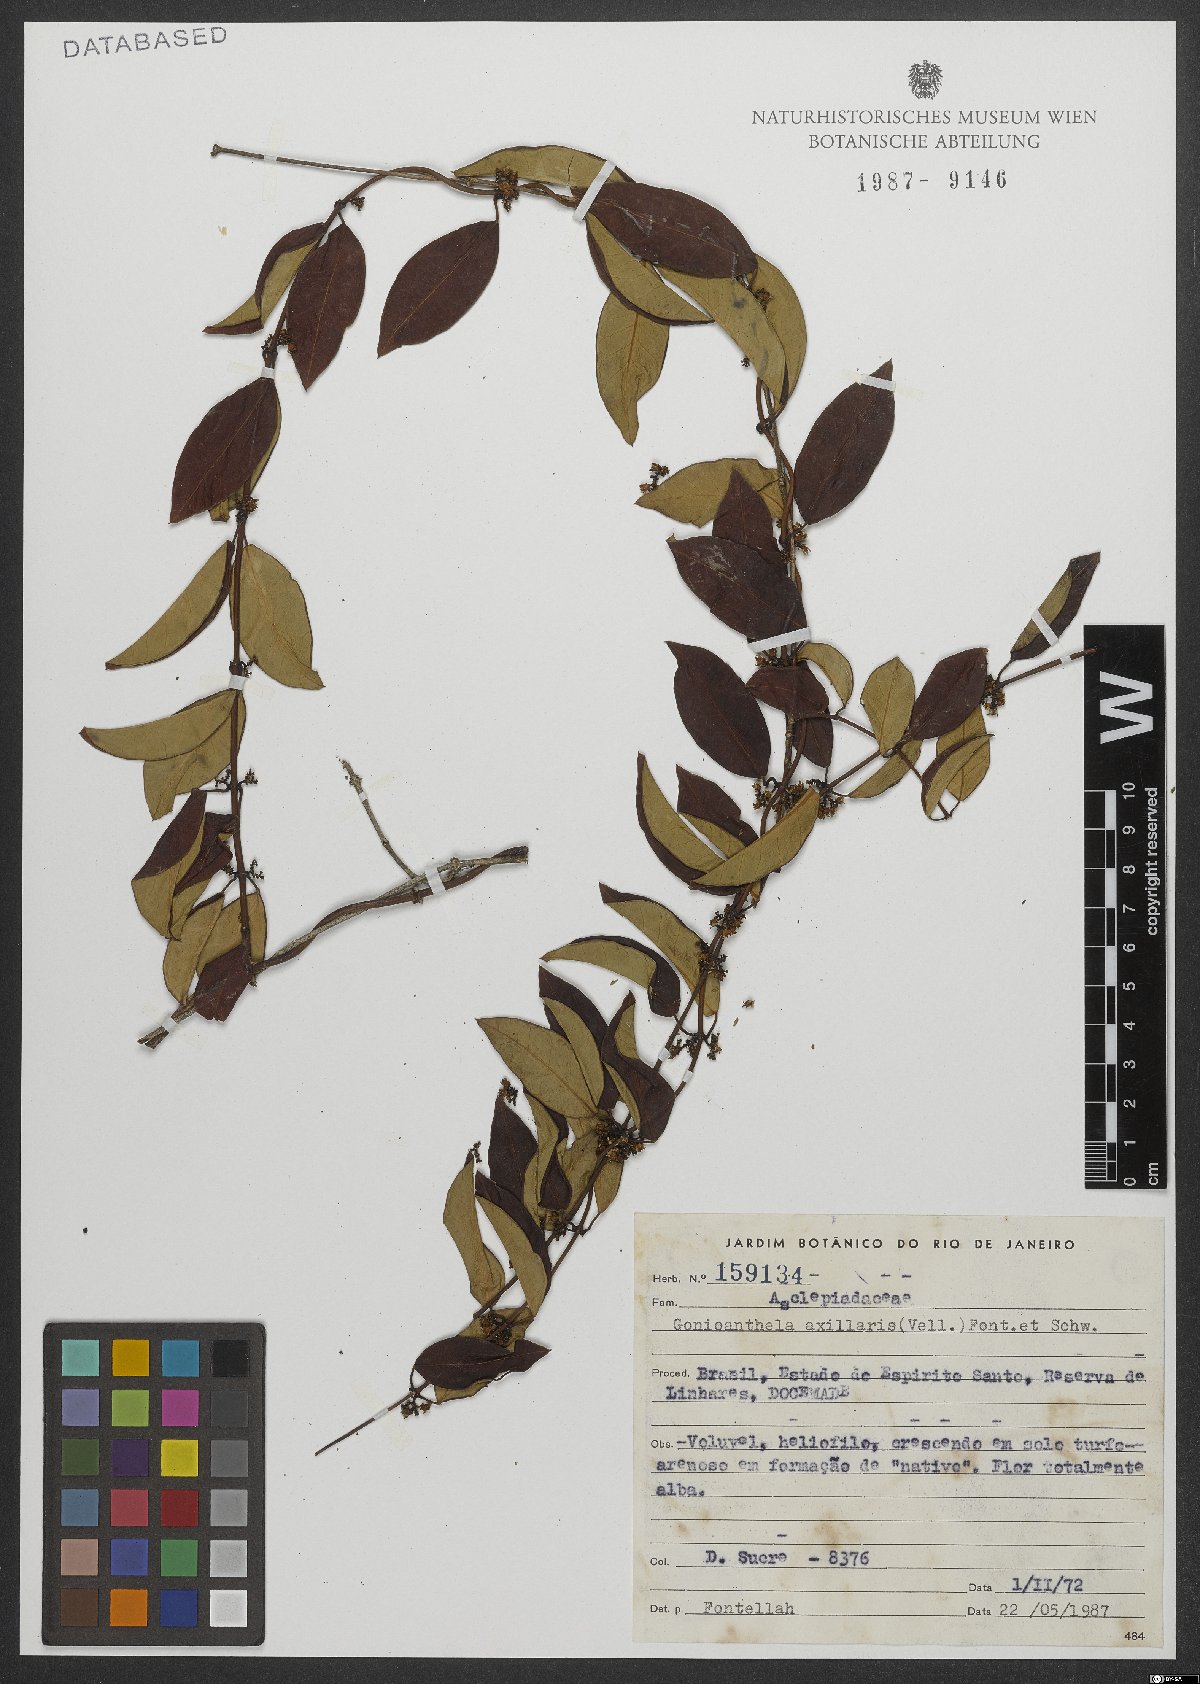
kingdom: Plantae
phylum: Tracheophyta
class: Magnoliopsida
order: Gentianales
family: Apocynaceae
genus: Peplonia
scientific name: Peplonia axillaris
